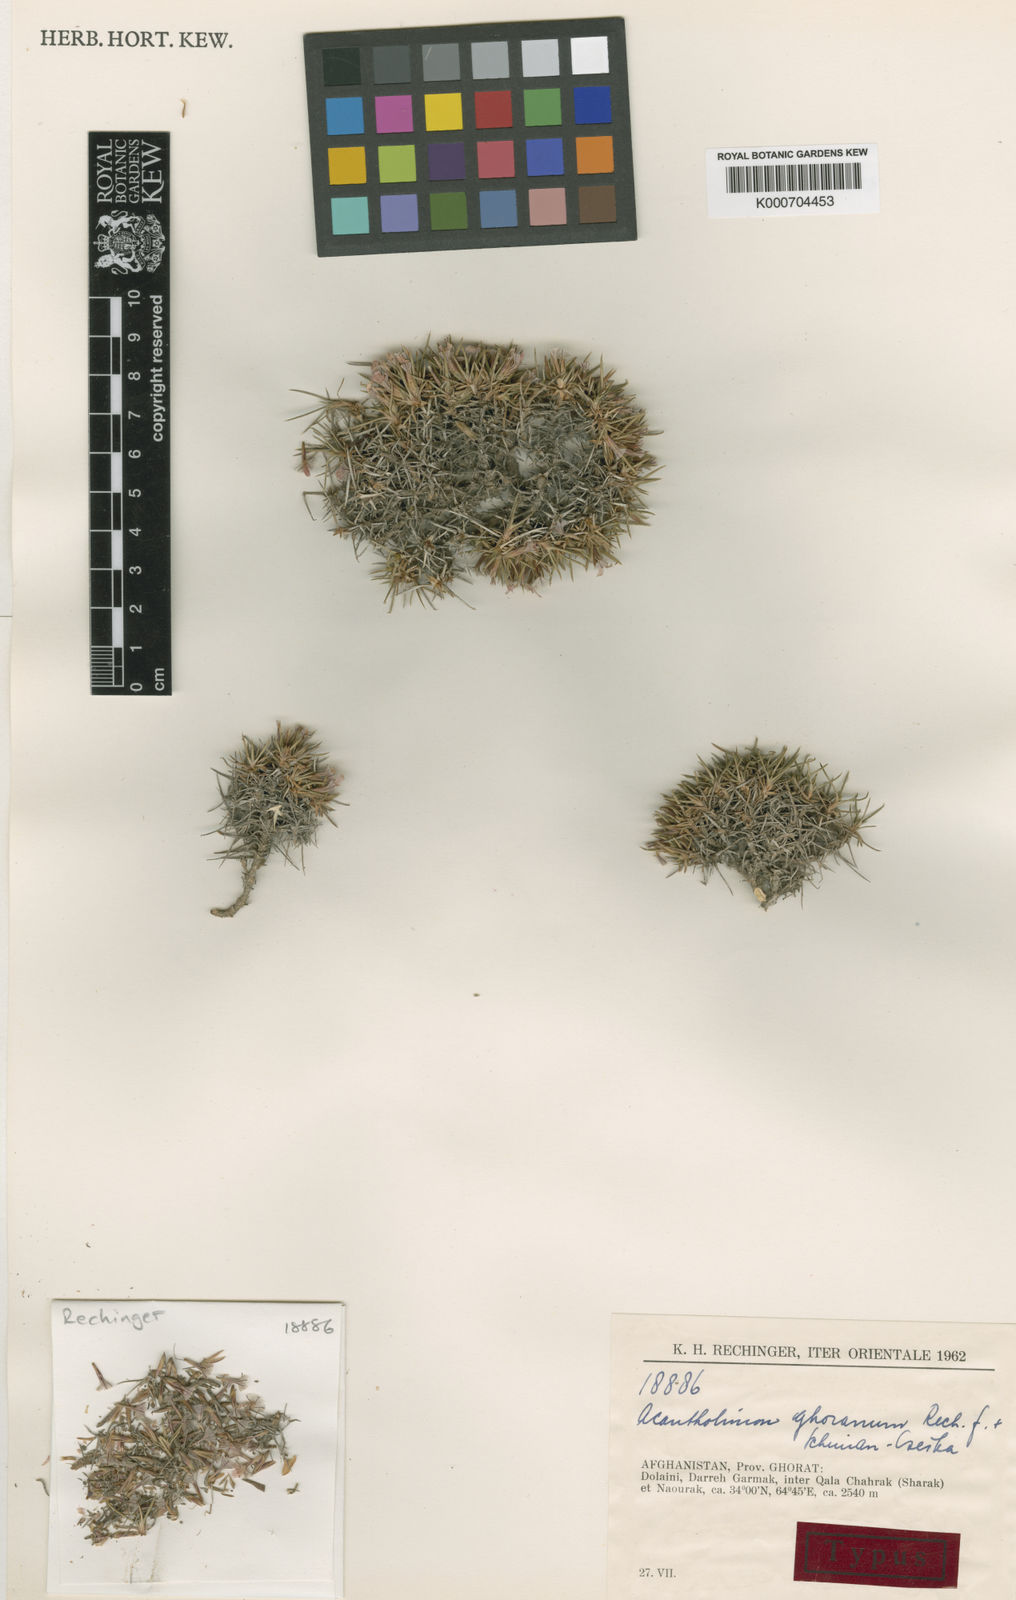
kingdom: Plantae
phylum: Tracheophyta
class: Magnoliopsida
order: Caryophyllales
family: Plumbaginaceae
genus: Acantholimon
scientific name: Acantholimon ghoranum
